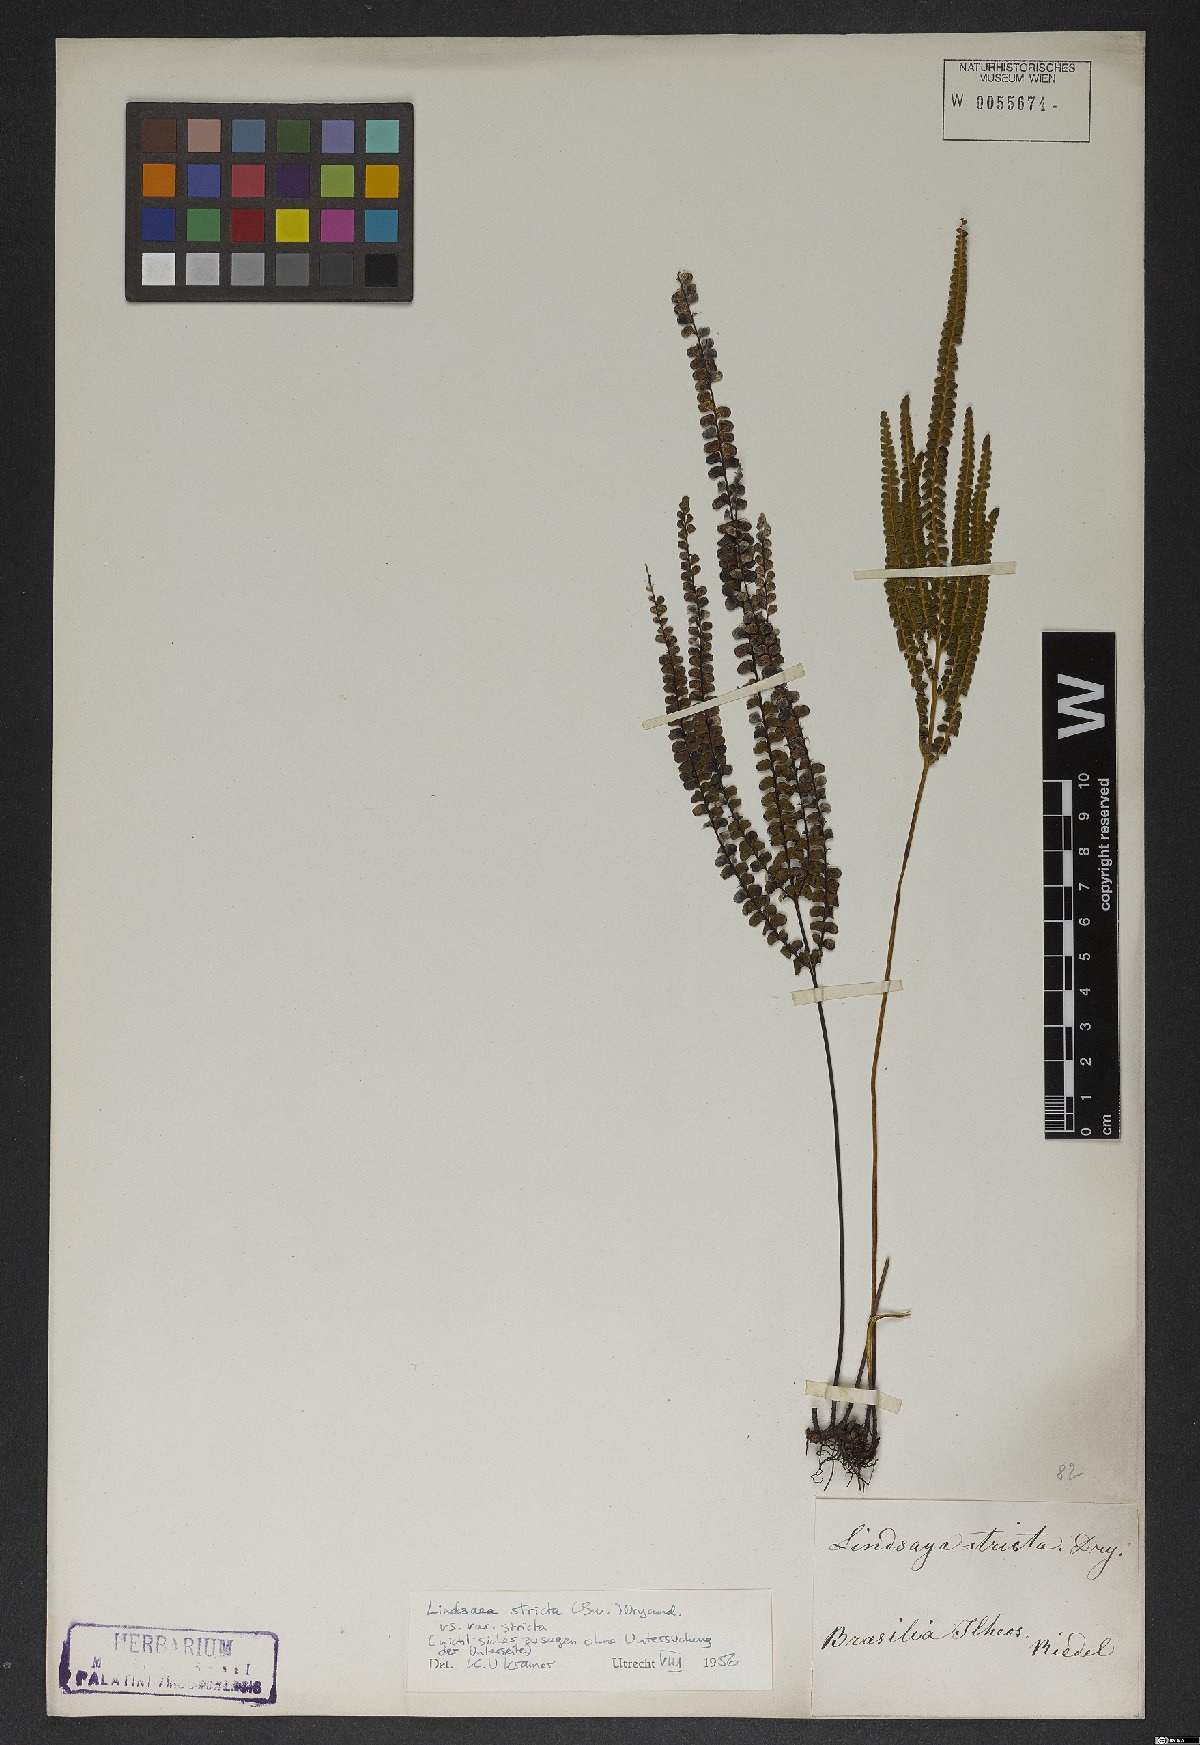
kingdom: Plantae
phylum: Tracheophyta
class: Polypodiopsida
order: Polypodiales
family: Lindsaeaceae
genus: Lindsaea
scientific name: Lindsaea stricta
